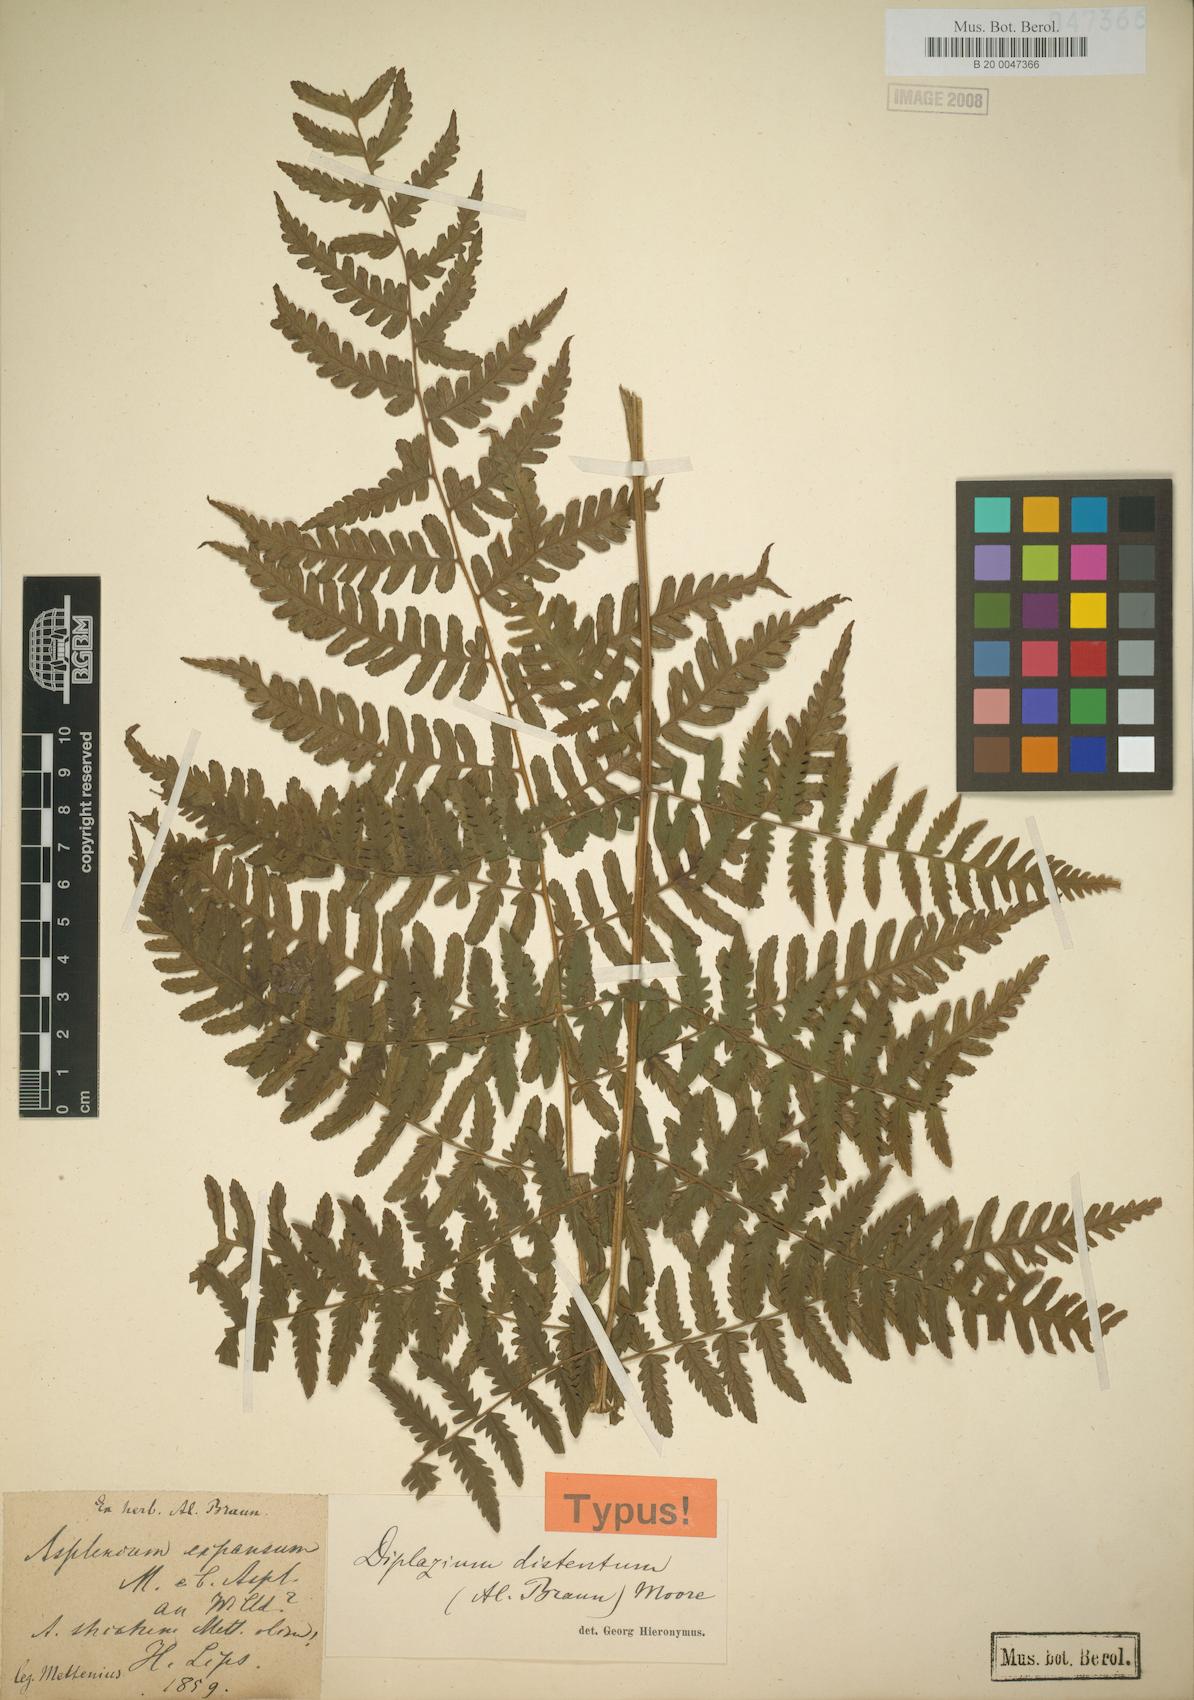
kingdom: Plantae
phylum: Tracheophyta
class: Polypodiopsida
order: Polypodiales
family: Athyriaceae
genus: Diplazium
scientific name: Diplazium expansum
